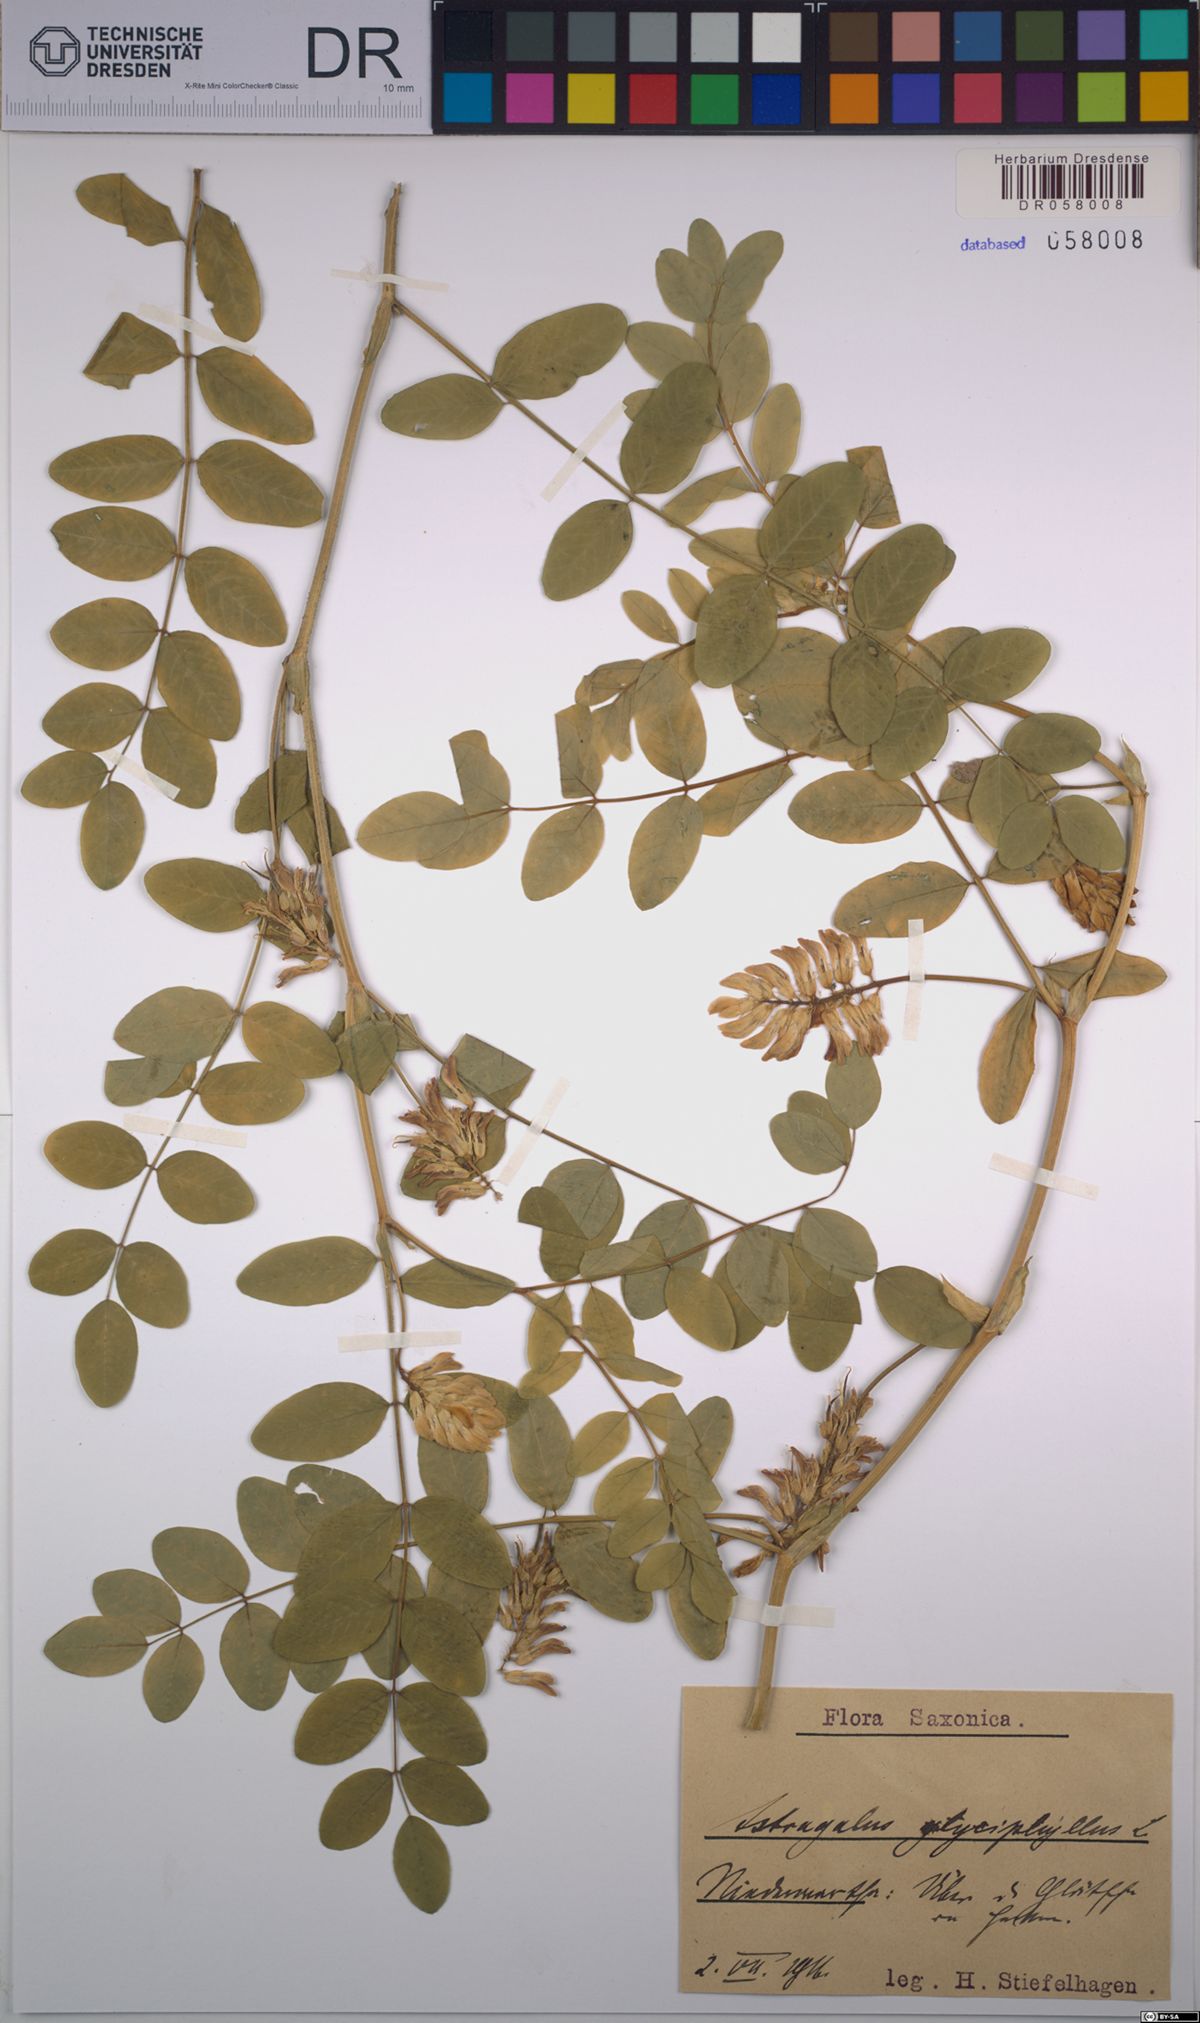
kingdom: Plantae
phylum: Tracheophyta
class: Magnoliopsida
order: Fabales
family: Fabaceae
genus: Astragalus
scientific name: Astragalus glycyphyllos
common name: Wild liquorice
